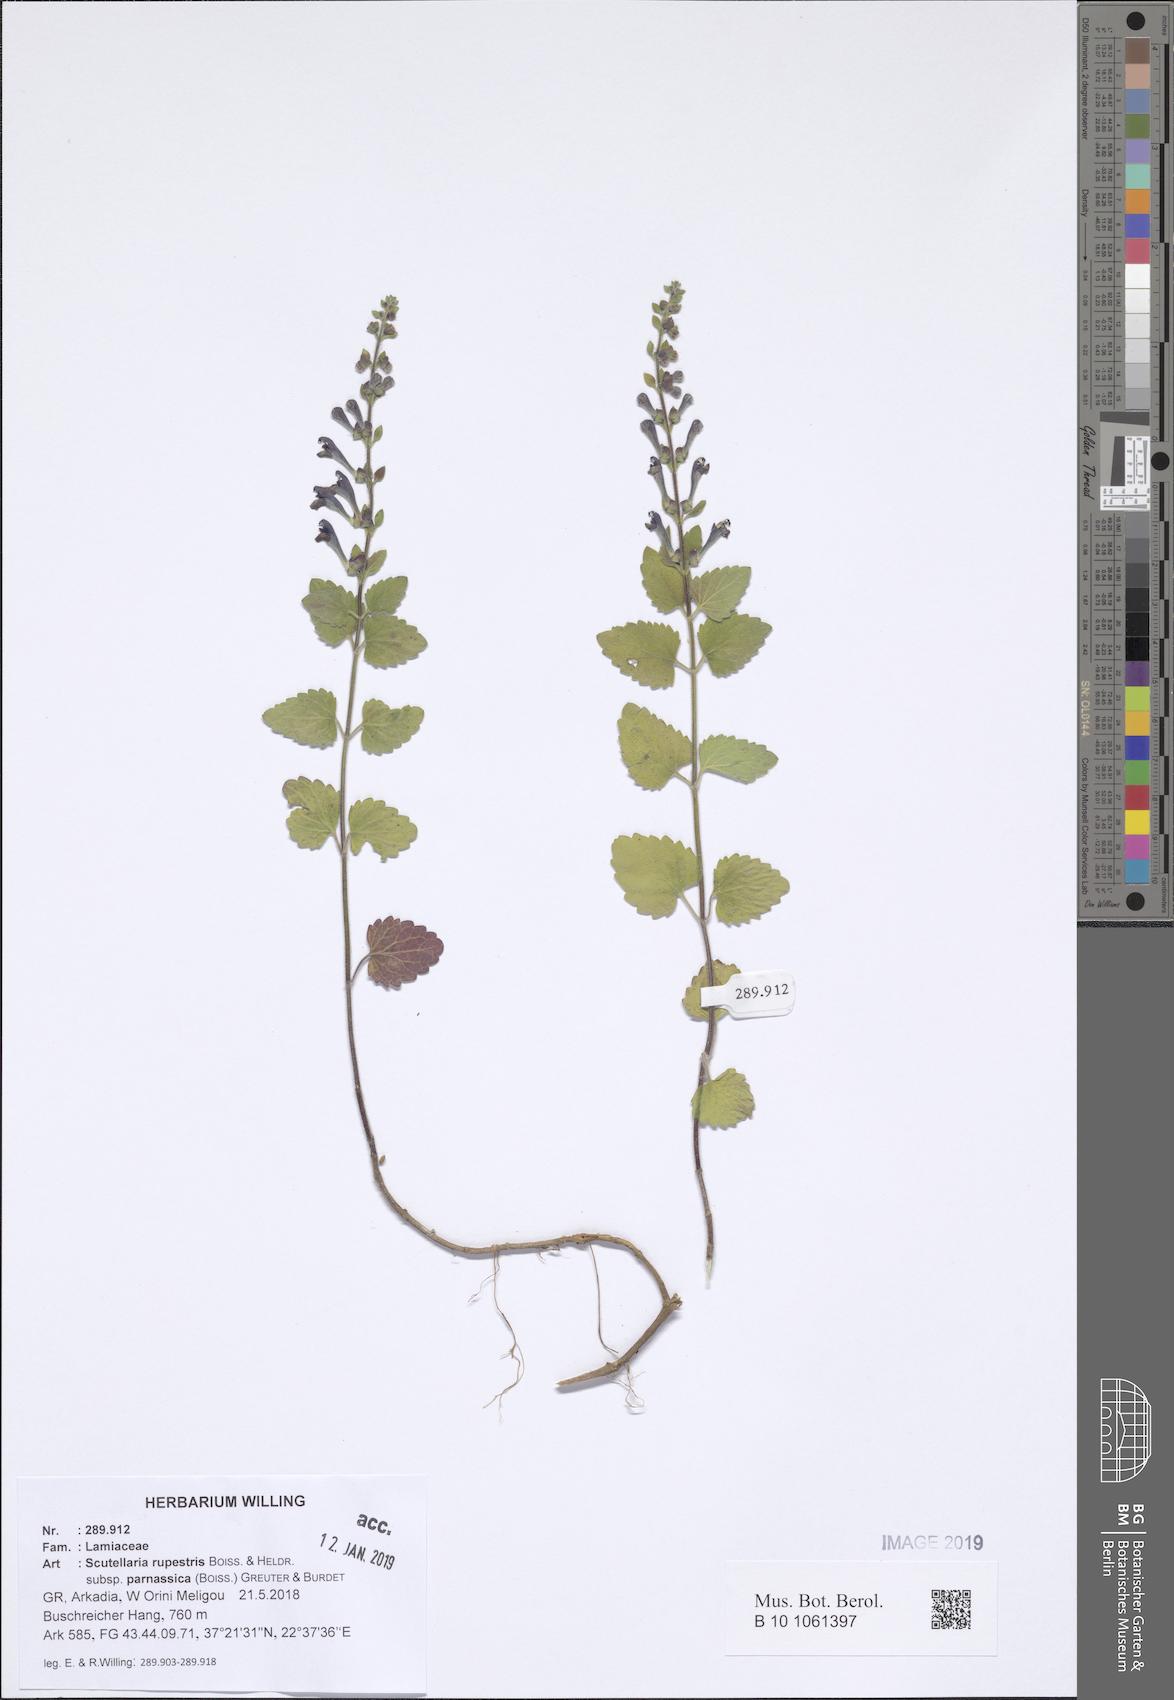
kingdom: Plantae
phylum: Tracheophyta
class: Magnoliopsida
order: Lamiales
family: Lamiaceae
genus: Scutellaria
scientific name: Scutellaria rupestris
